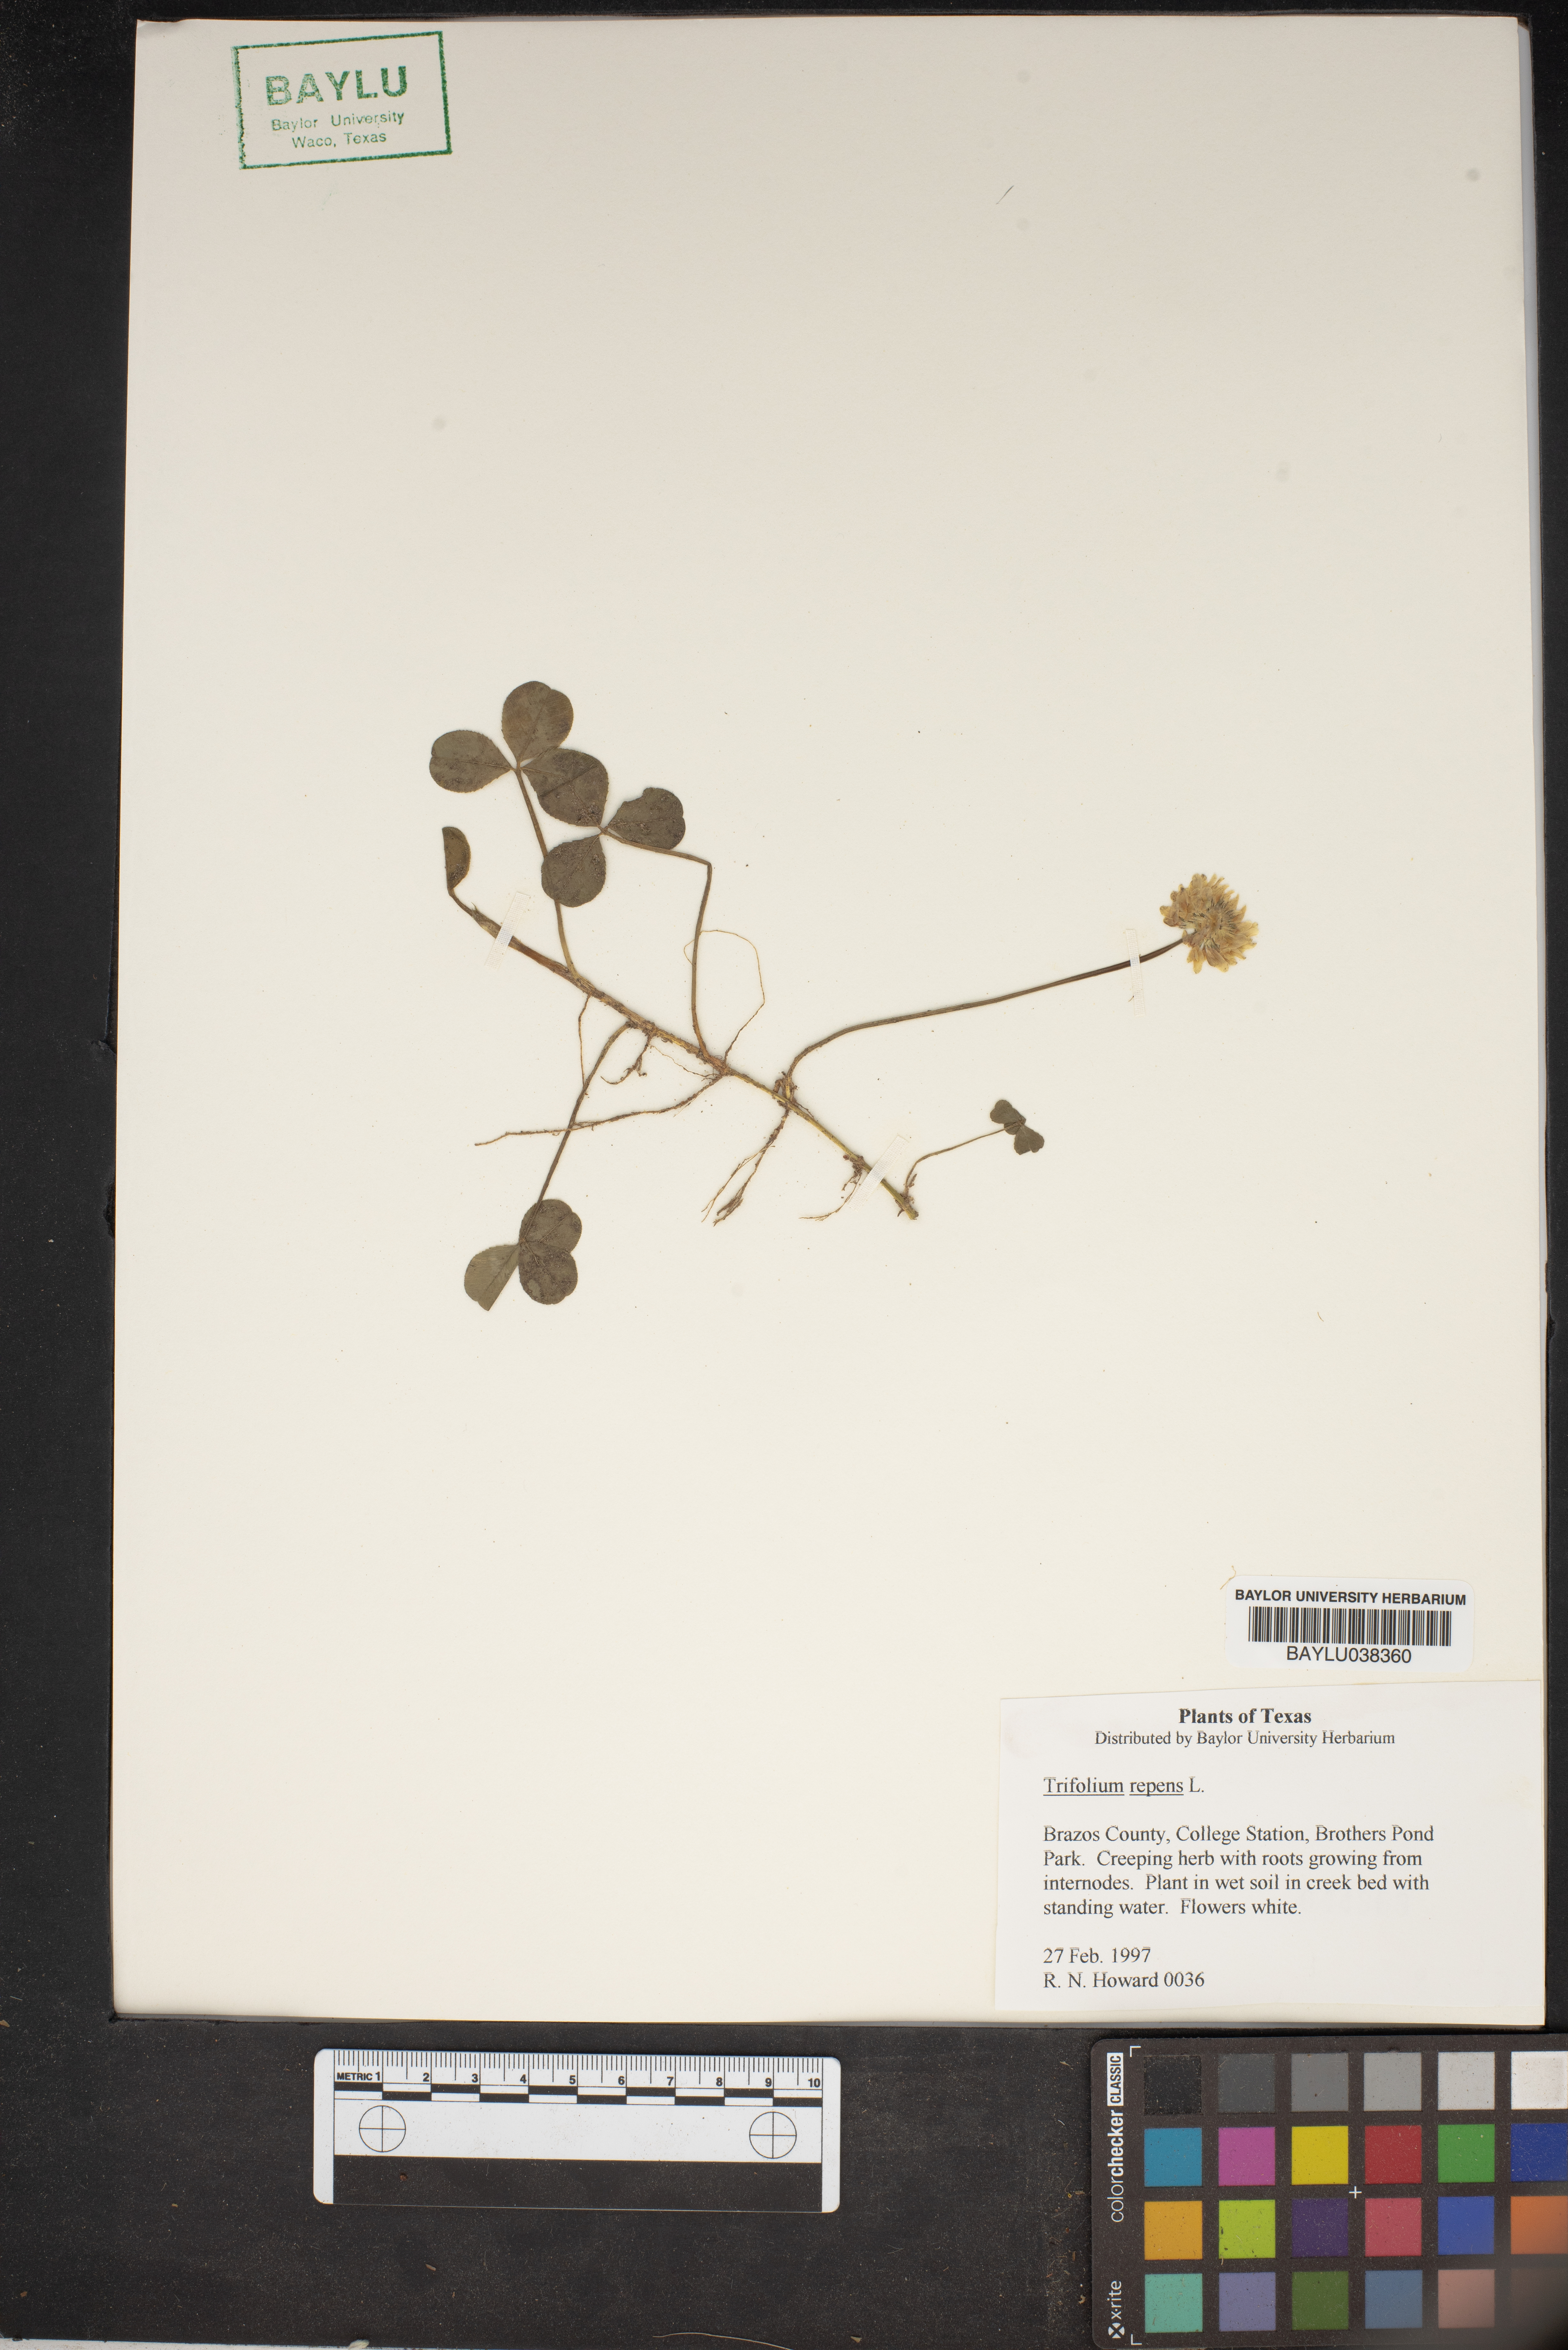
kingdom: Plantae
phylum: Tracheophyta
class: Magnoliopsida
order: Fabales
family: Fabaceae
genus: Trifolium
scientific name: Trifolium repens
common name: White clover
